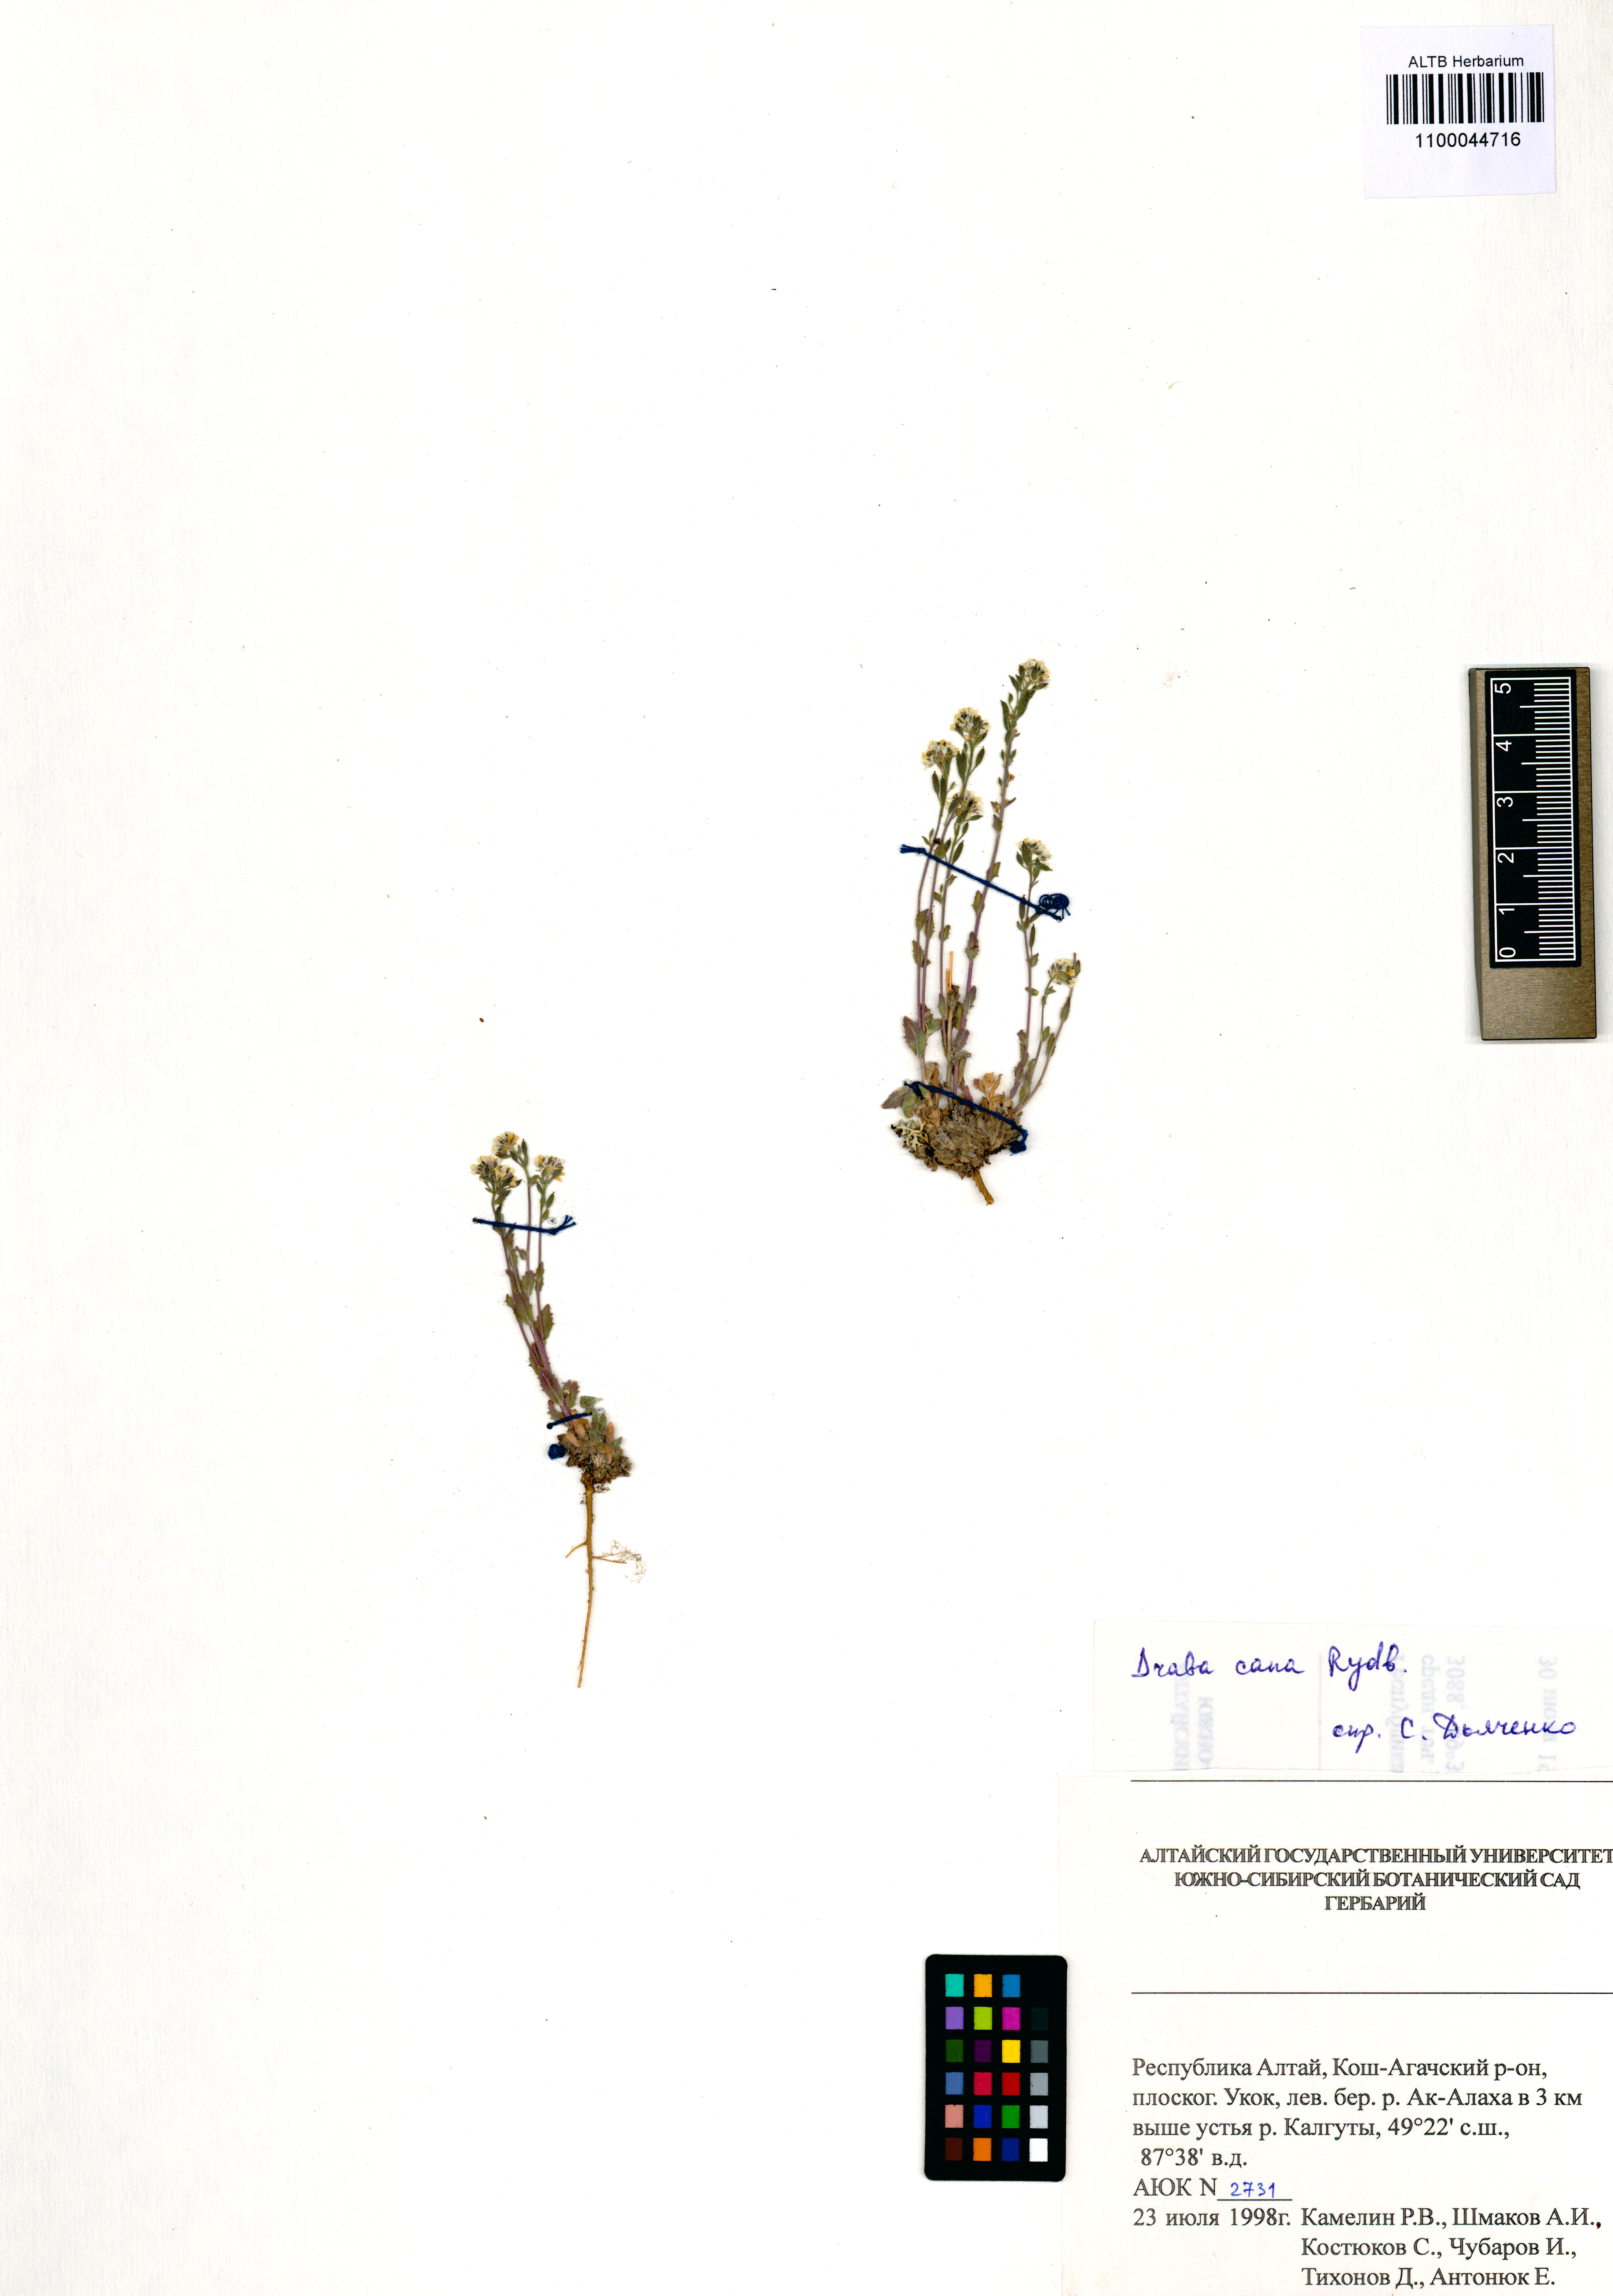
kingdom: Plantae
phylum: Tracheophyta
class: Magnoliopsida
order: Brassicales
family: Brassicaceae
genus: Draba
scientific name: Draba cana
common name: Hoary draba
